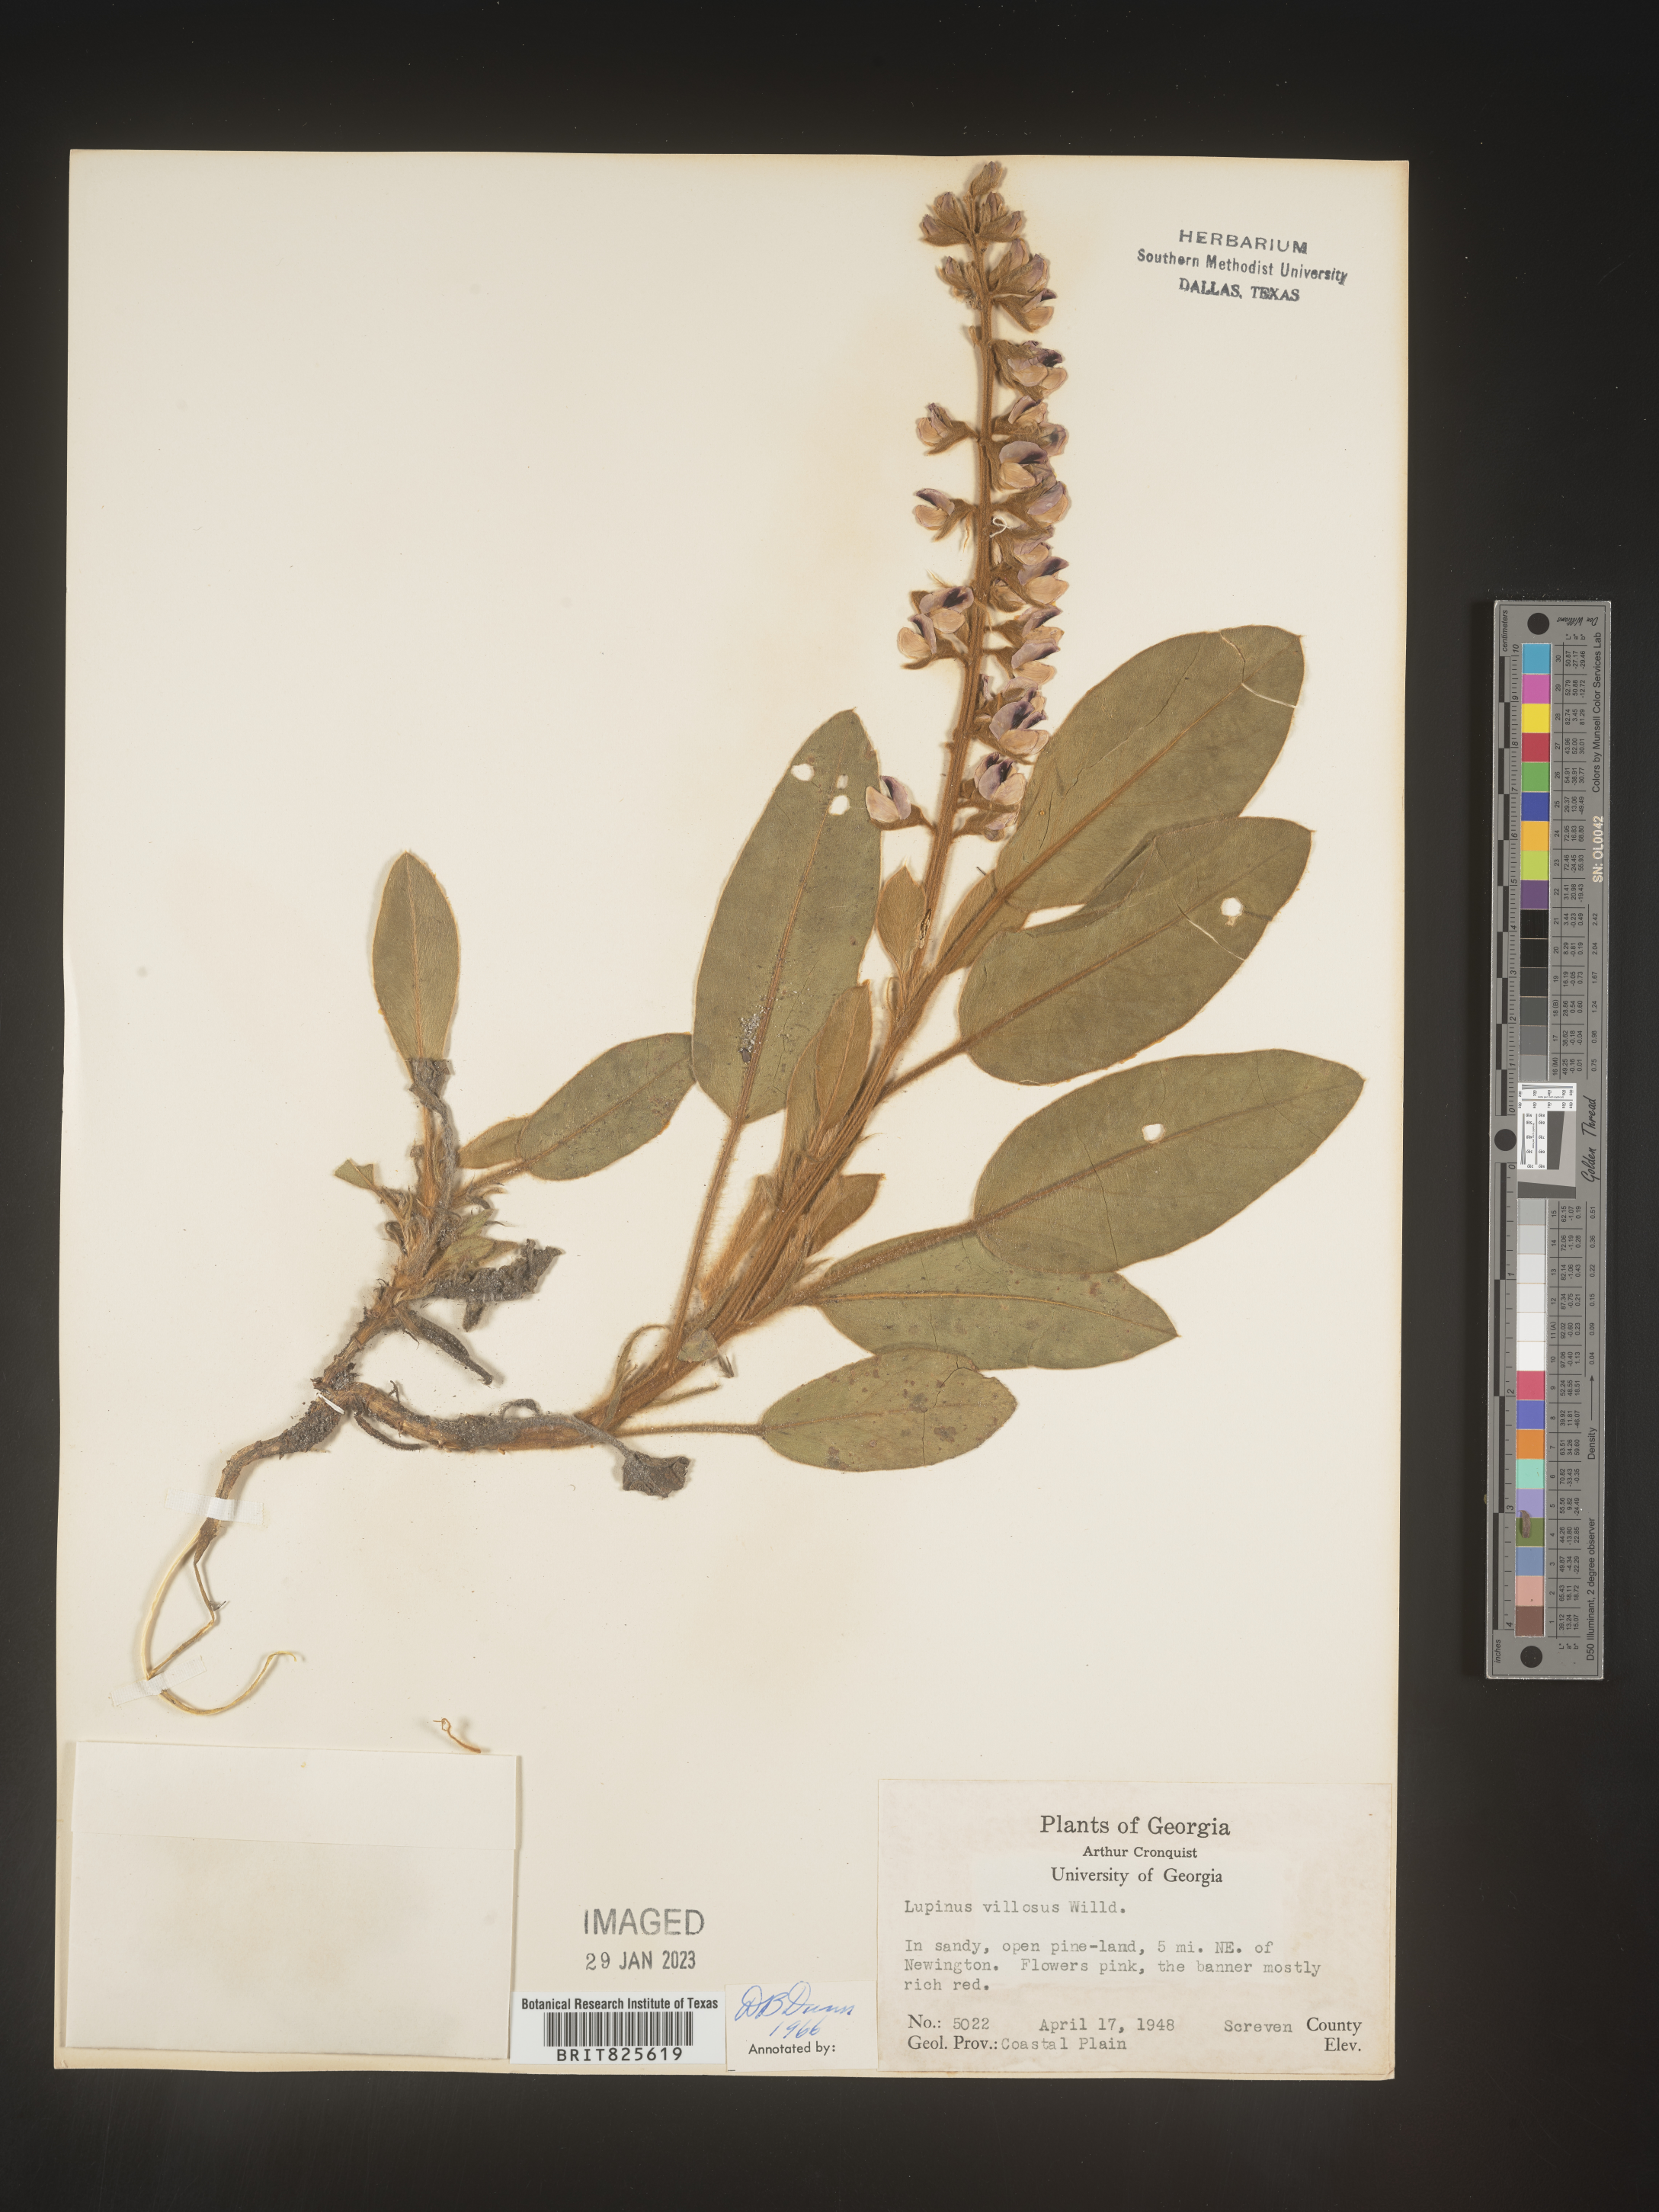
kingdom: Plantae
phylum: Tracheophyta
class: Magnoliopsida
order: Fabales
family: Fabaceae
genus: Lupinus
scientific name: Lupinus villosus
